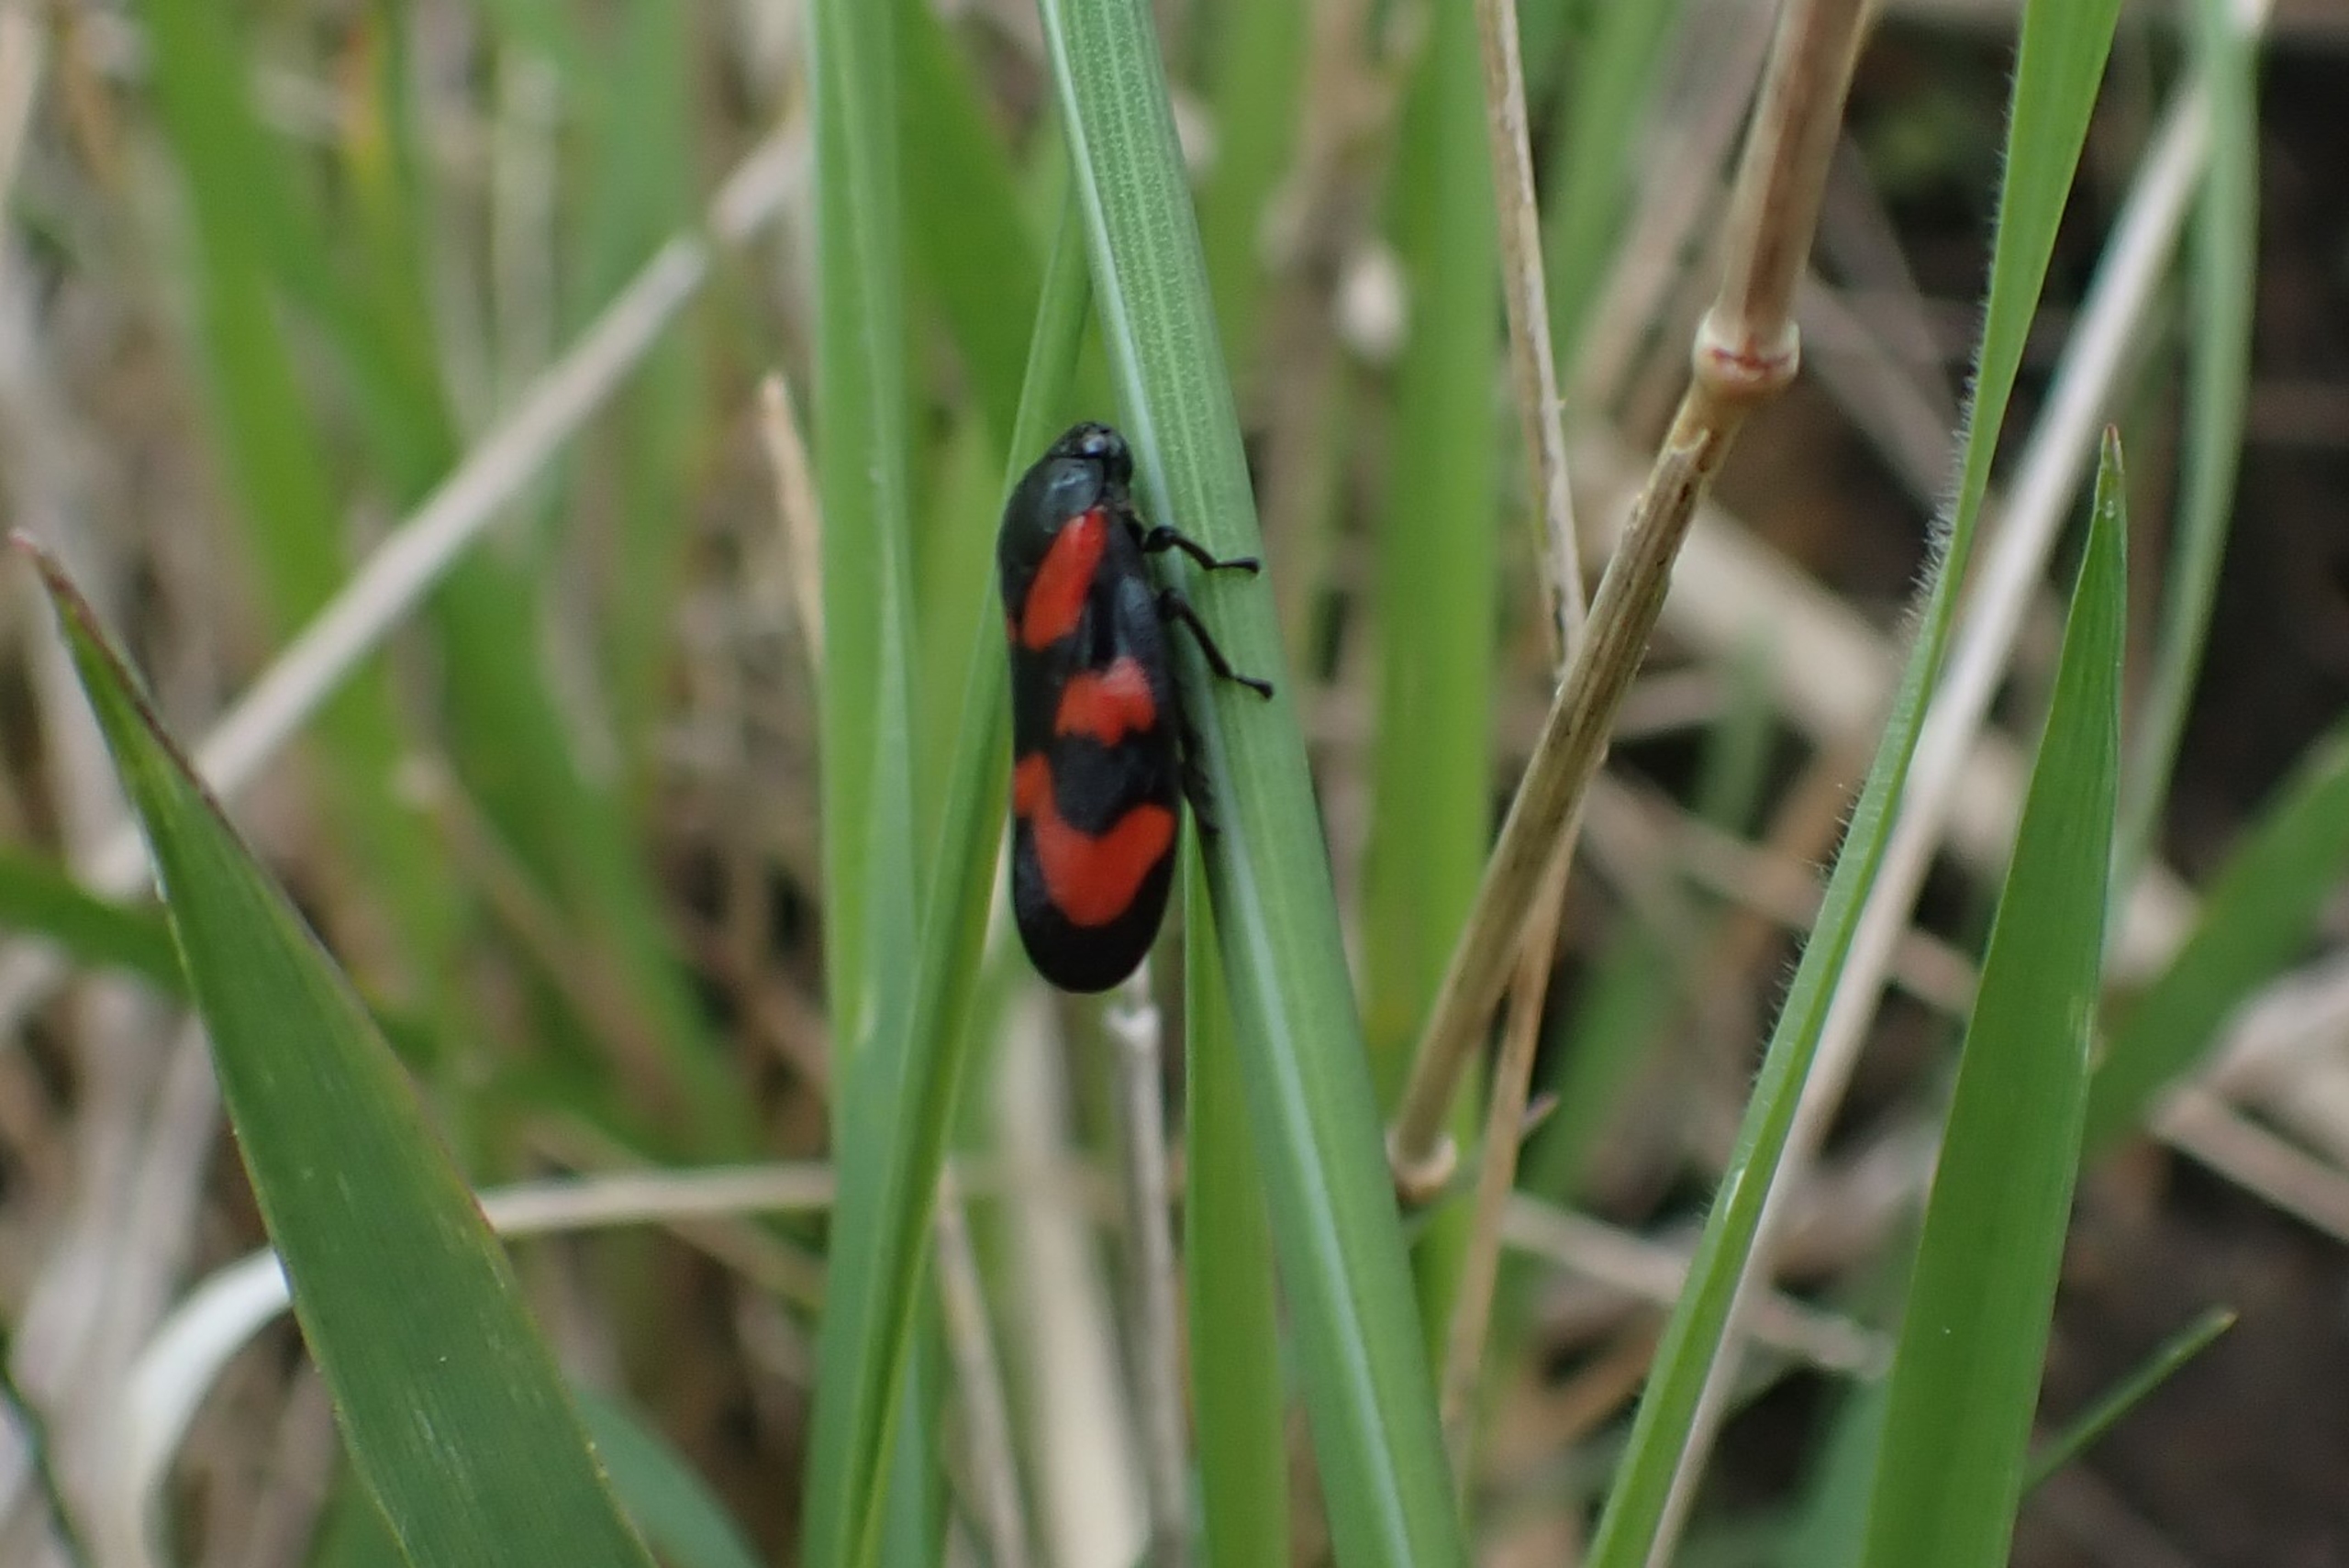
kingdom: Animalia
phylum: Arthropoda
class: Insecta
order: Hemiptera
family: Cercopidae
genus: Cercopis
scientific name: Cercopis vulnerata
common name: Blodcikade
